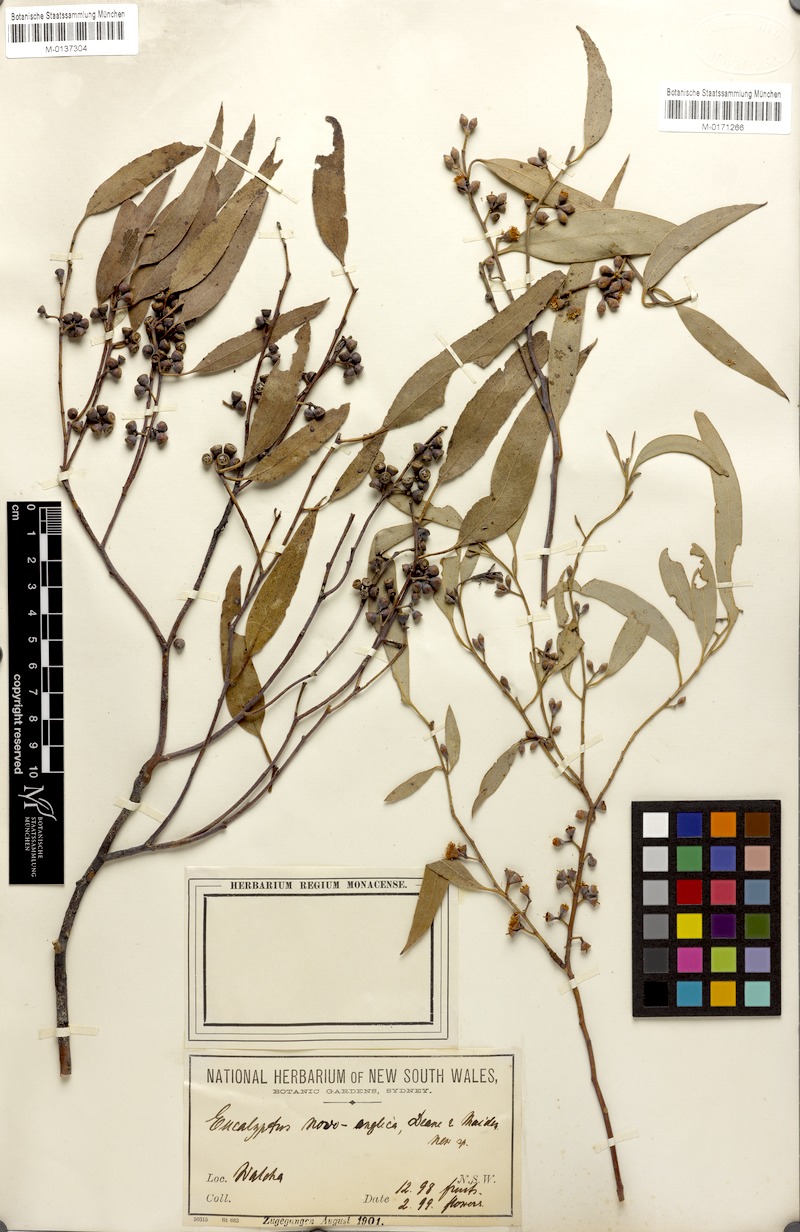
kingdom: Plantae
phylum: Tracheophyta
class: Magnoliopsida
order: Myrtales
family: Myrtaceae
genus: Eucalyptus
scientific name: Eucalyptus nova-anglica
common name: Black peppermint
